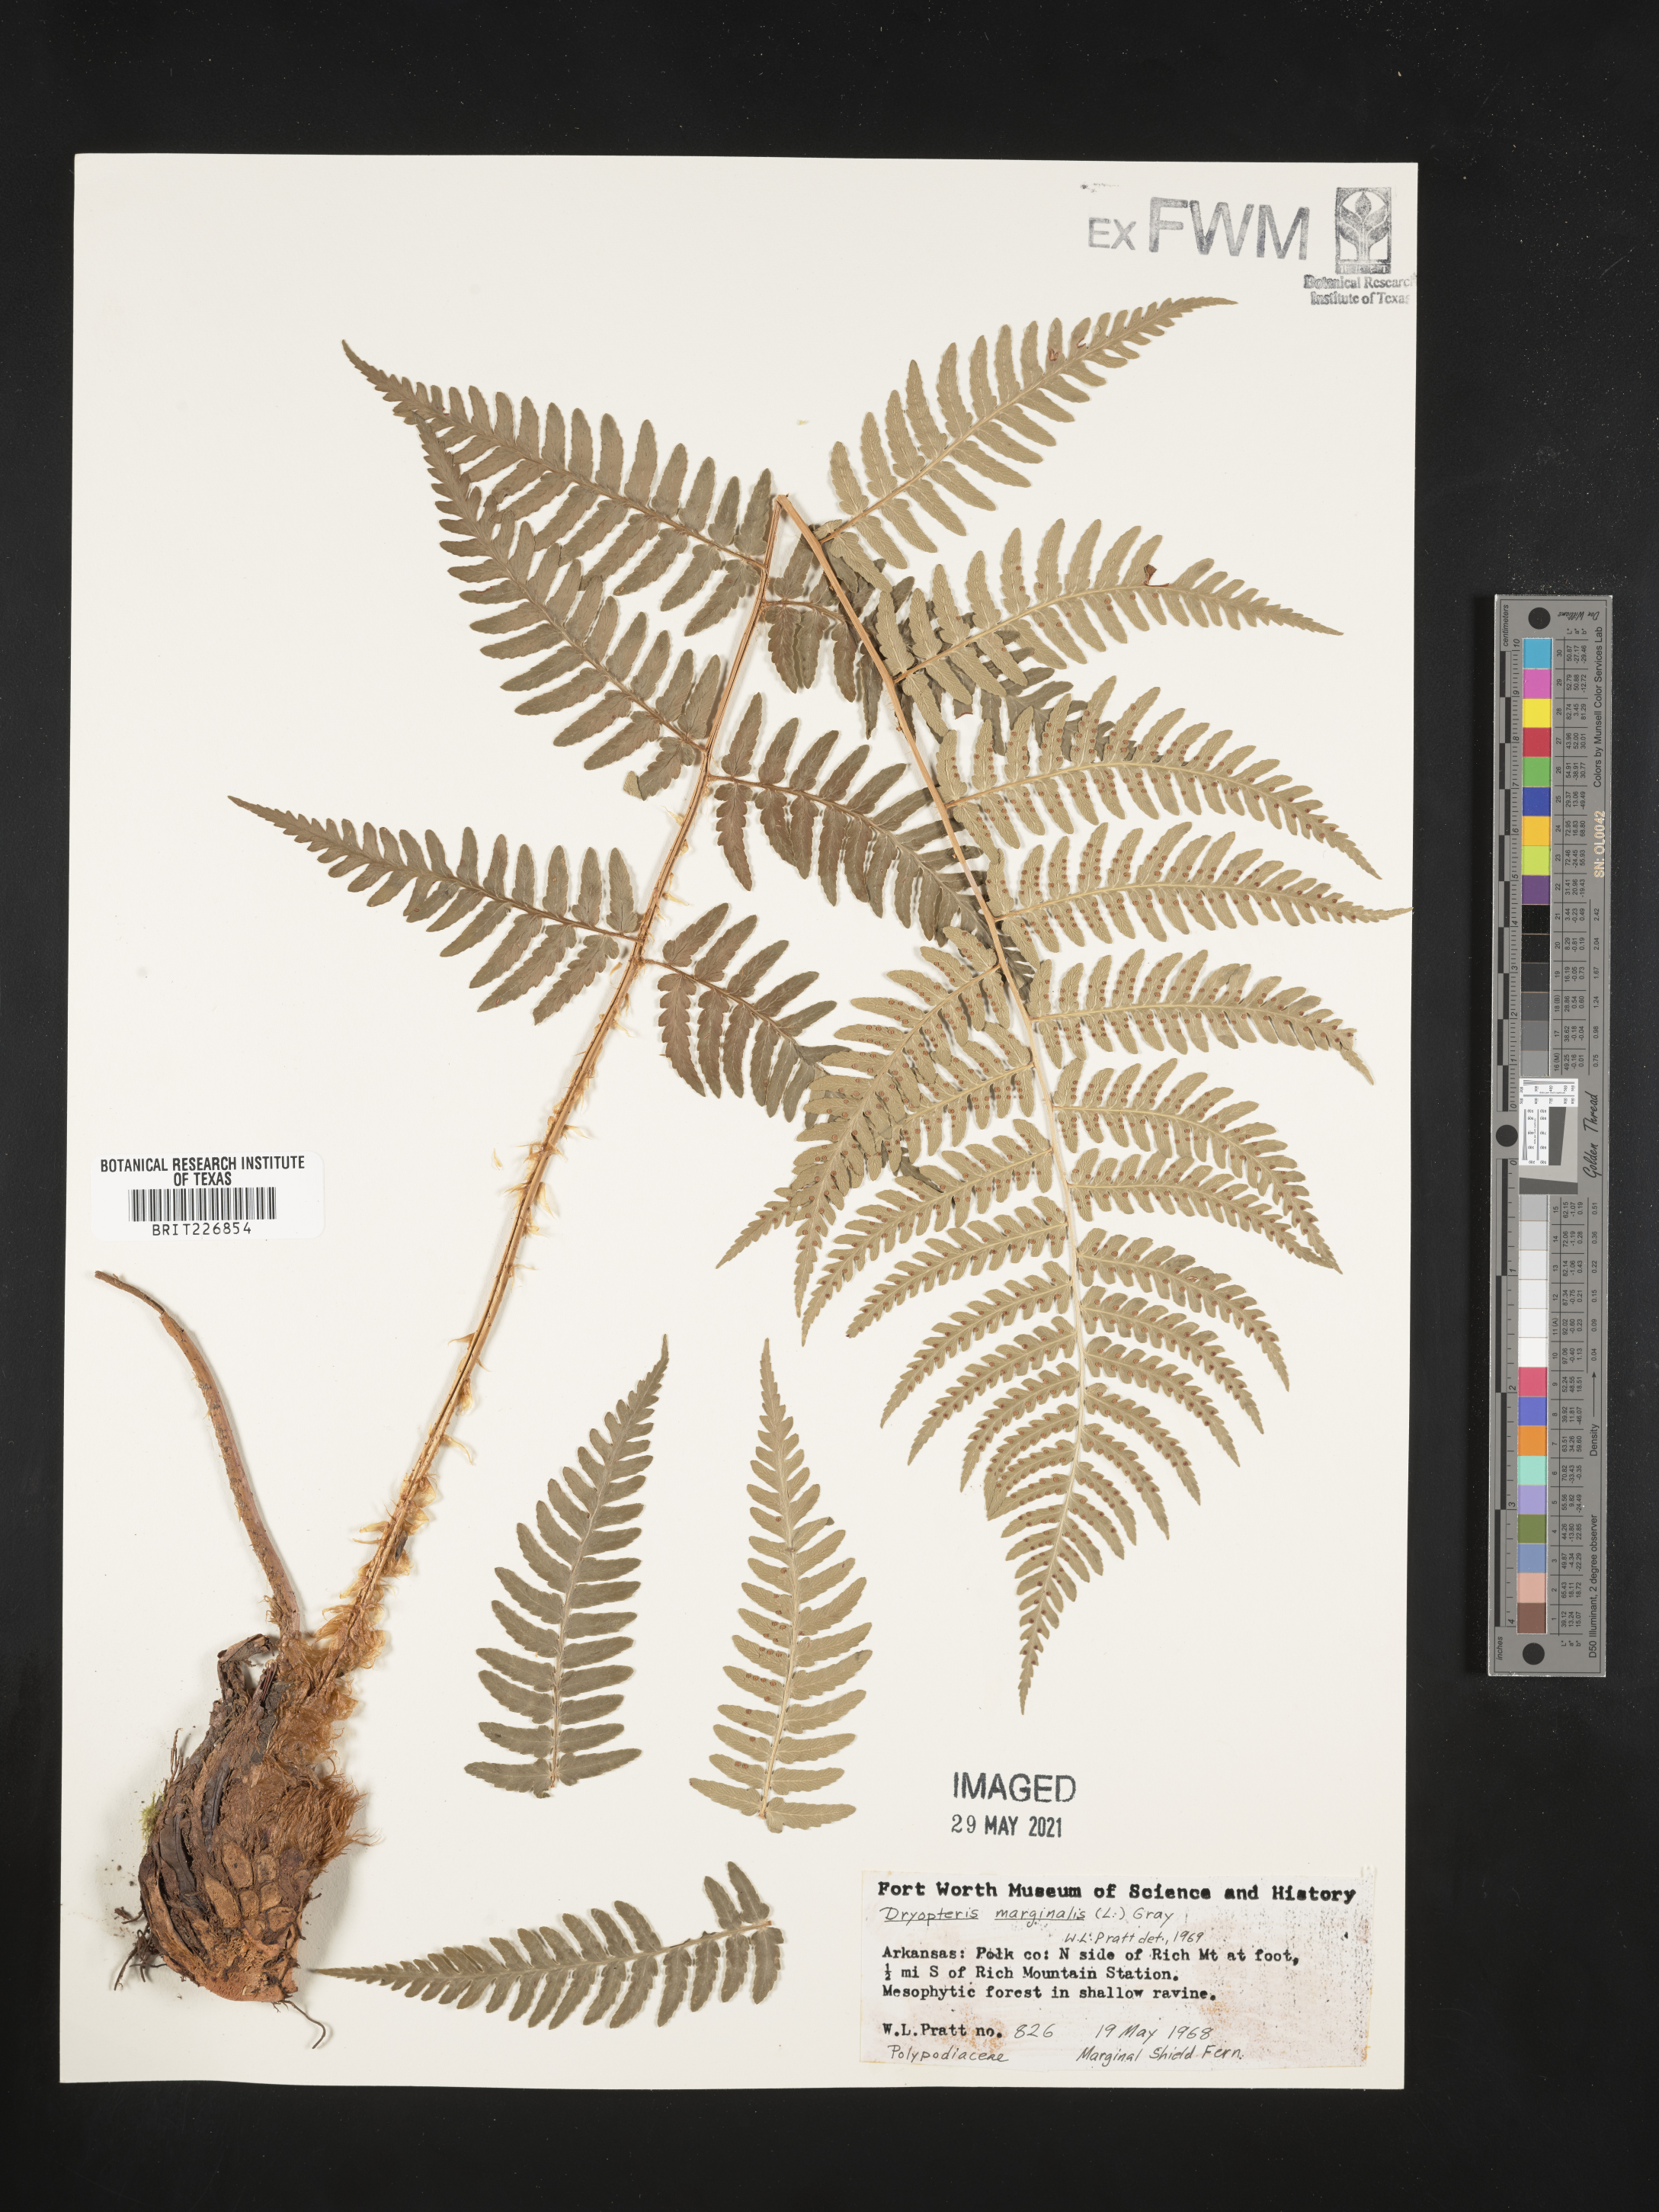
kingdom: Plantae
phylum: Tracheophyta
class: Polypodiopsida
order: Polypodiales
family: Dryopteridaceae
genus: Dryopteris
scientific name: Dryopteris marginalis
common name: Marginal wood fern
